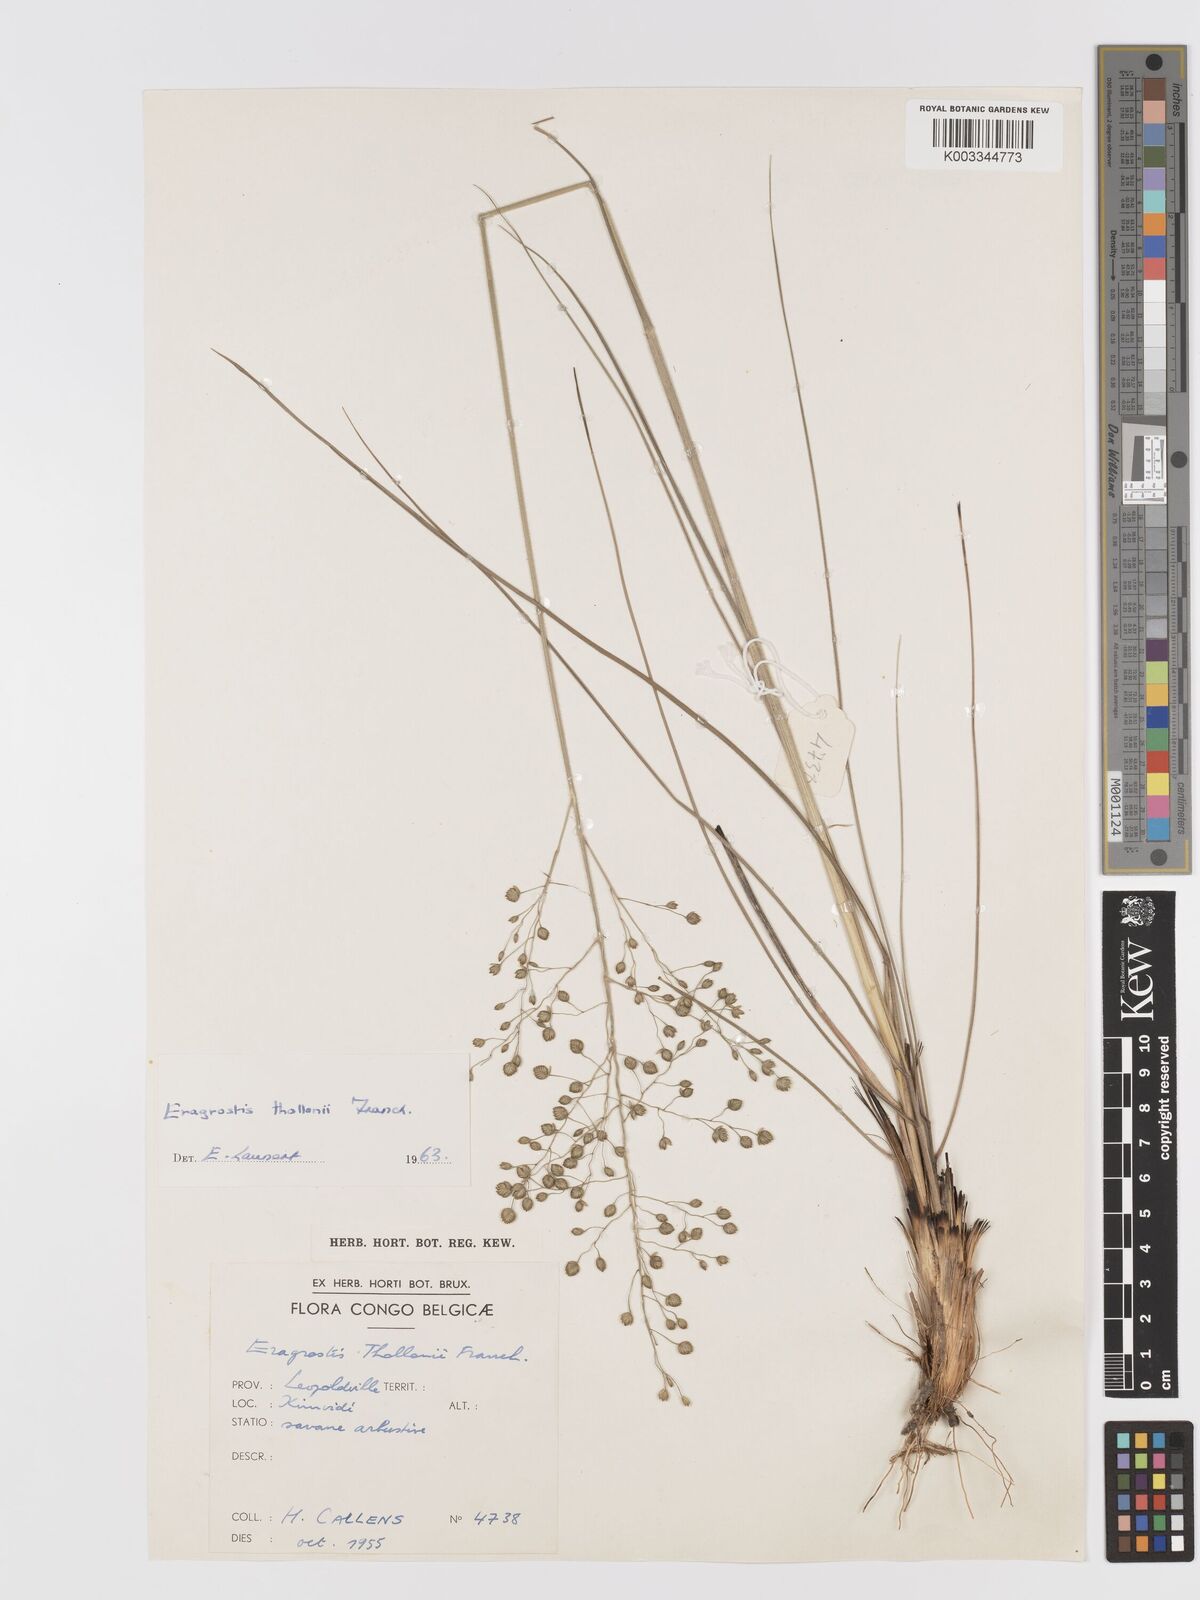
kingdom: Plantae
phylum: Tracheophyta
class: Liliopsida
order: Poales
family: Poaceae
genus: Eragrostis
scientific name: Eragrostis thollonii
